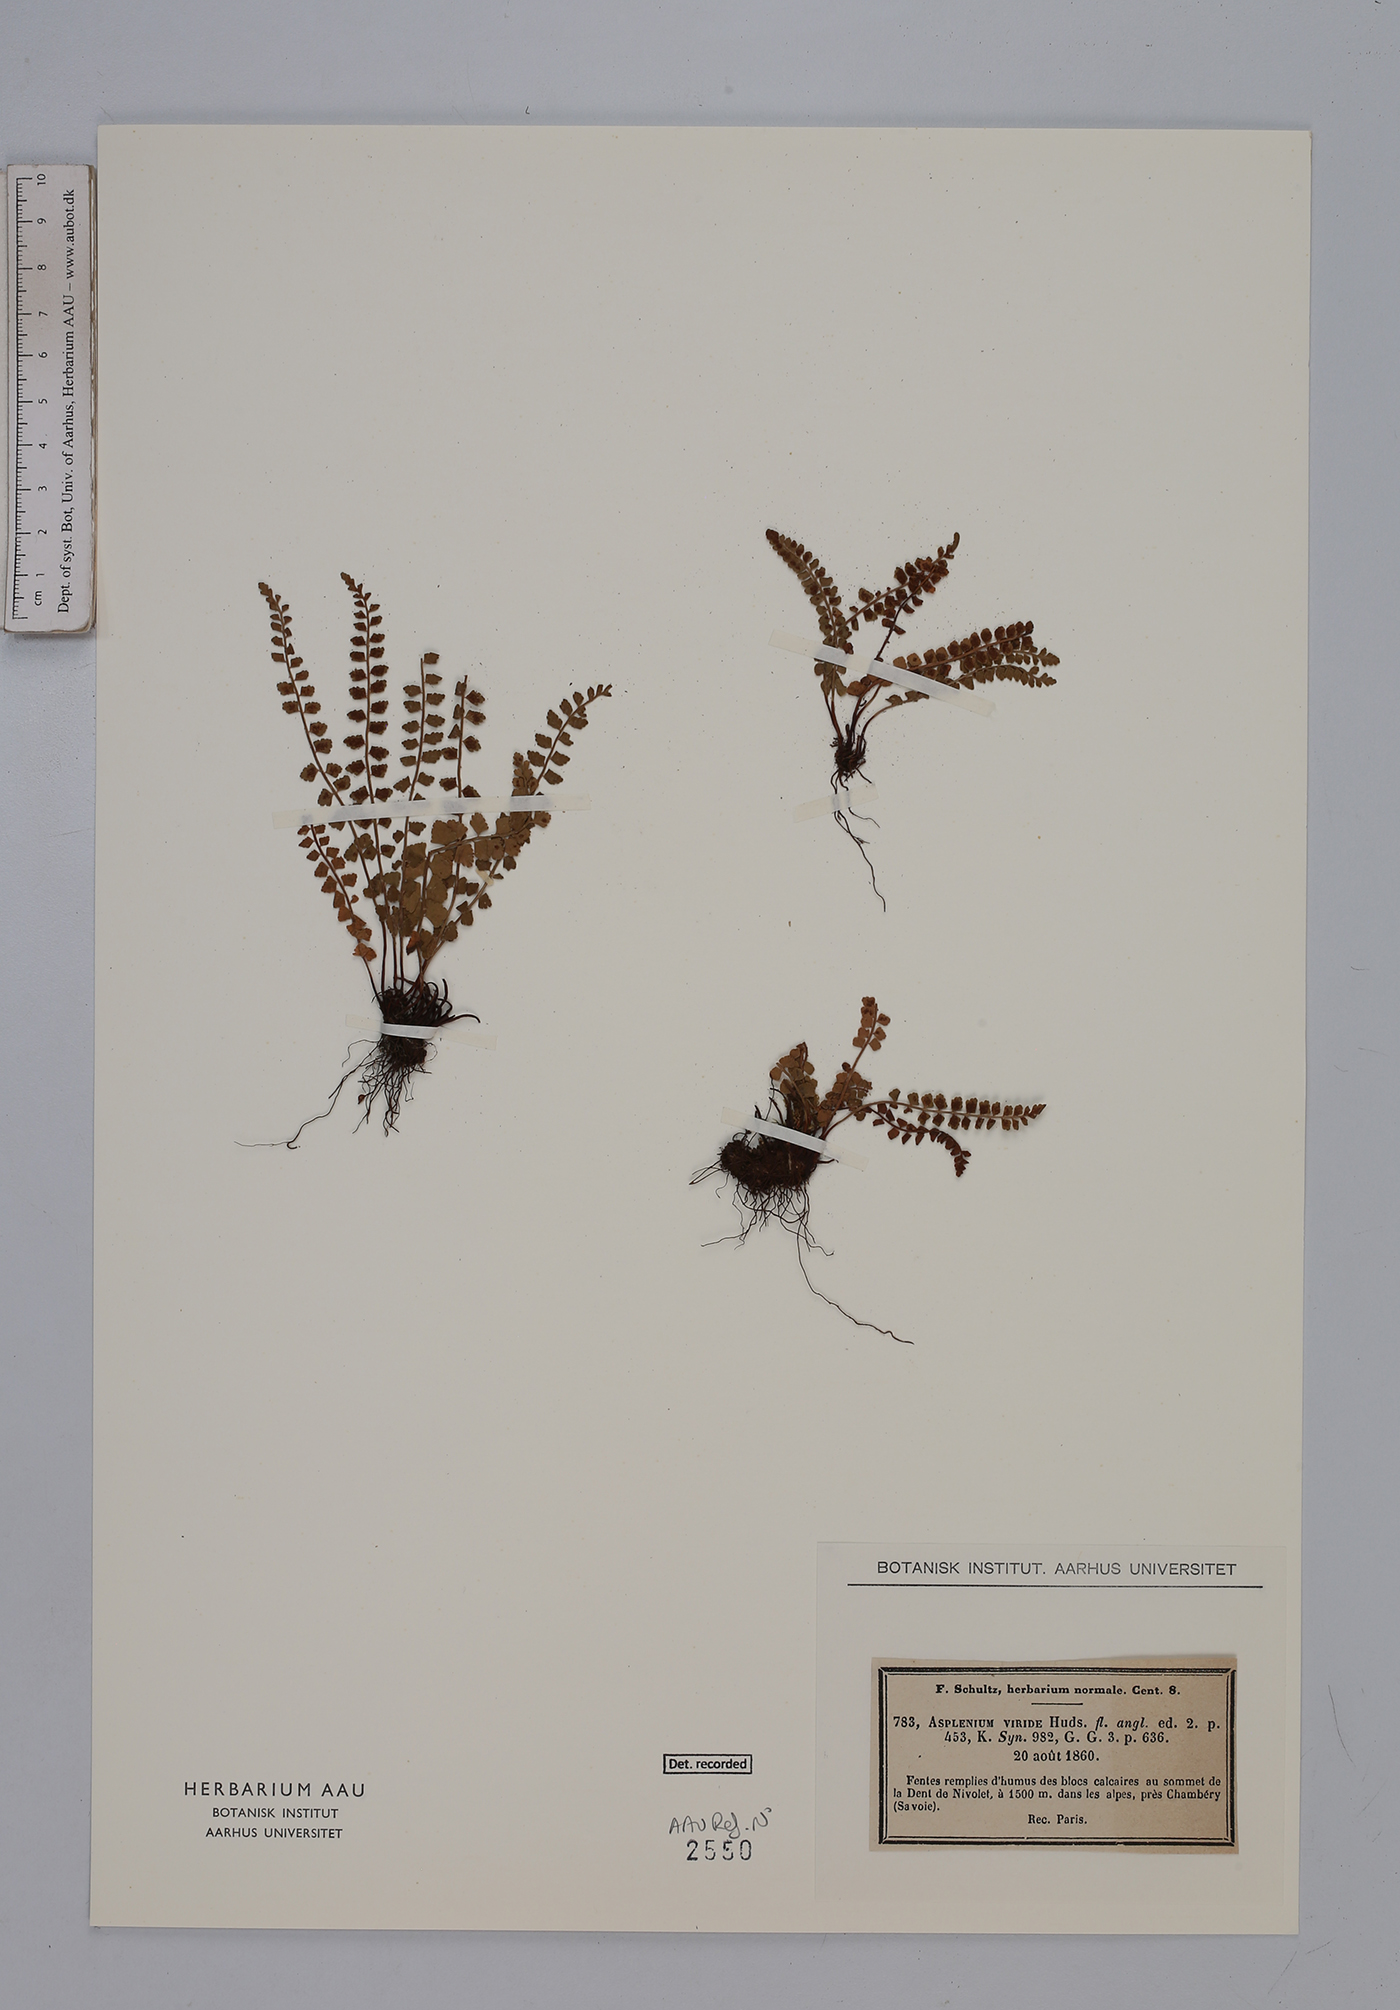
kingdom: Plantae
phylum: Tracheophyta
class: Polypodiopsida
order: Polypodiales
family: Aspleniaceae
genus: Asplenium
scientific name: Asplenium viride
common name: Green spleenwort
